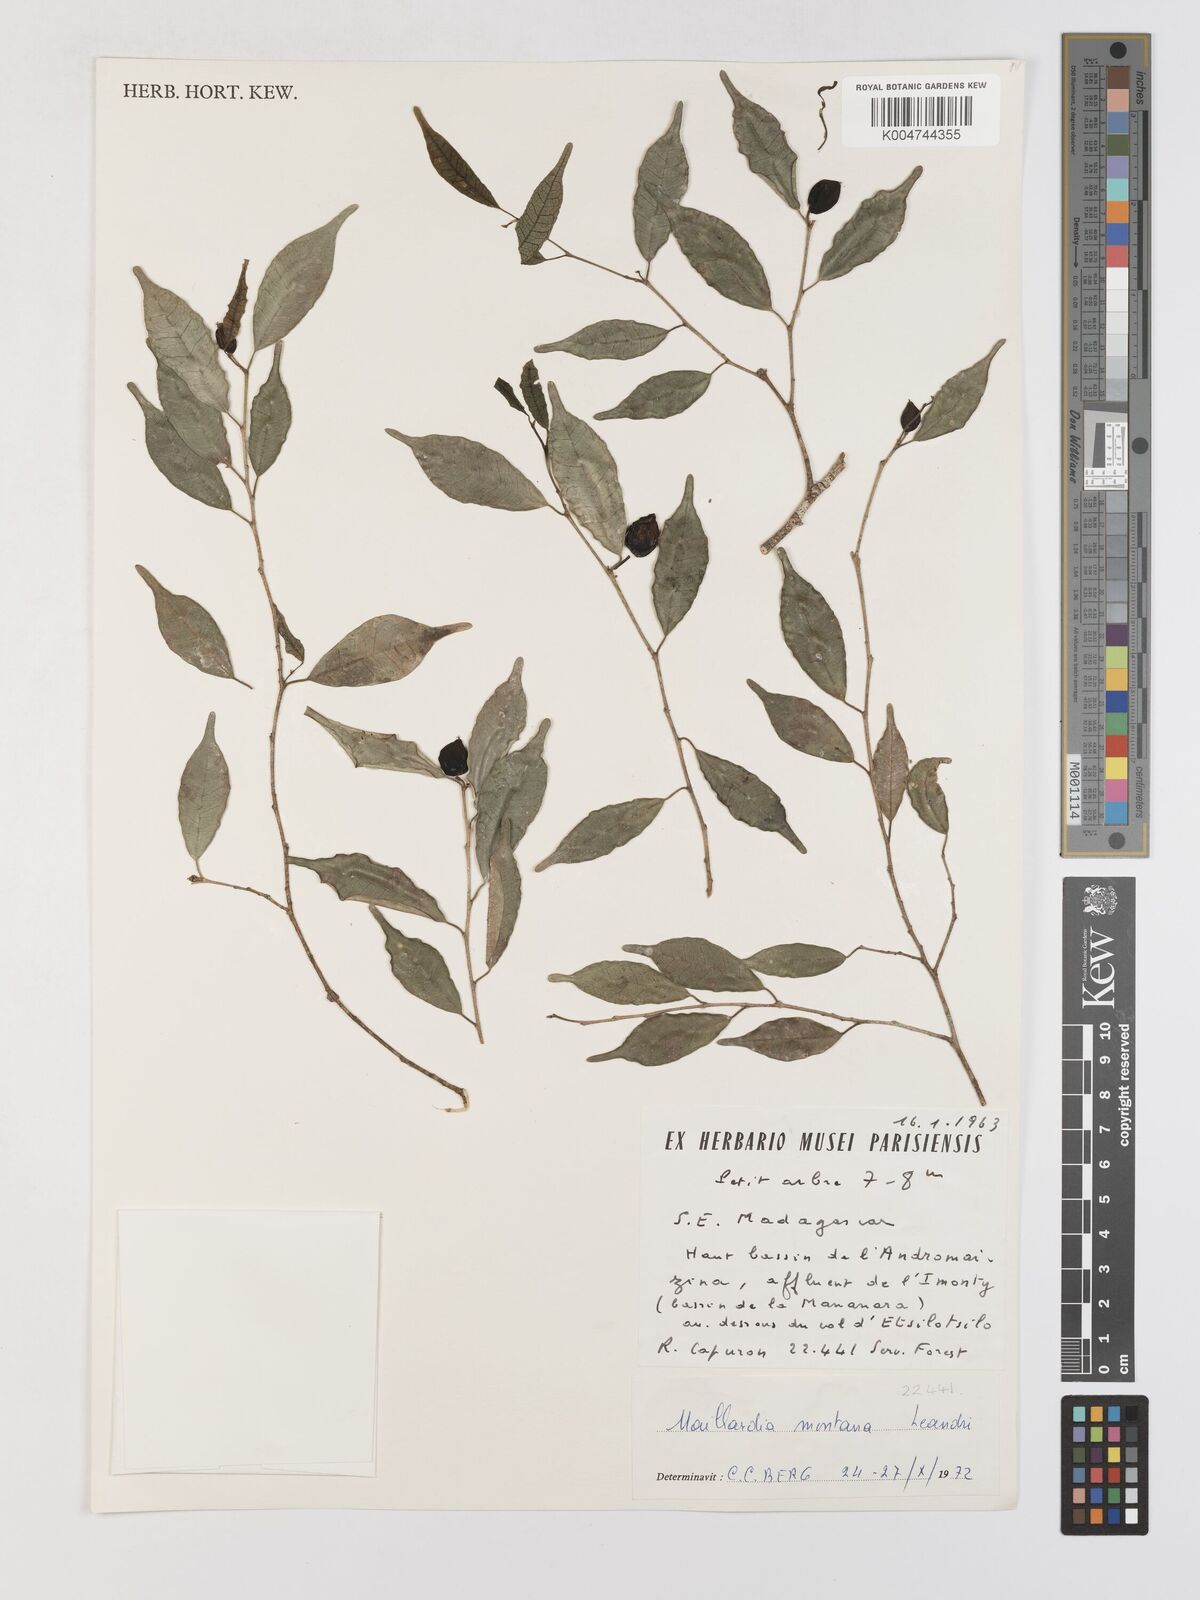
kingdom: Plantae
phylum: Tracheophyta
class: Magnoliopsida
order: Rosales
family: Moraceae
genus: Maillardia
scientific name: Maillardia montana
